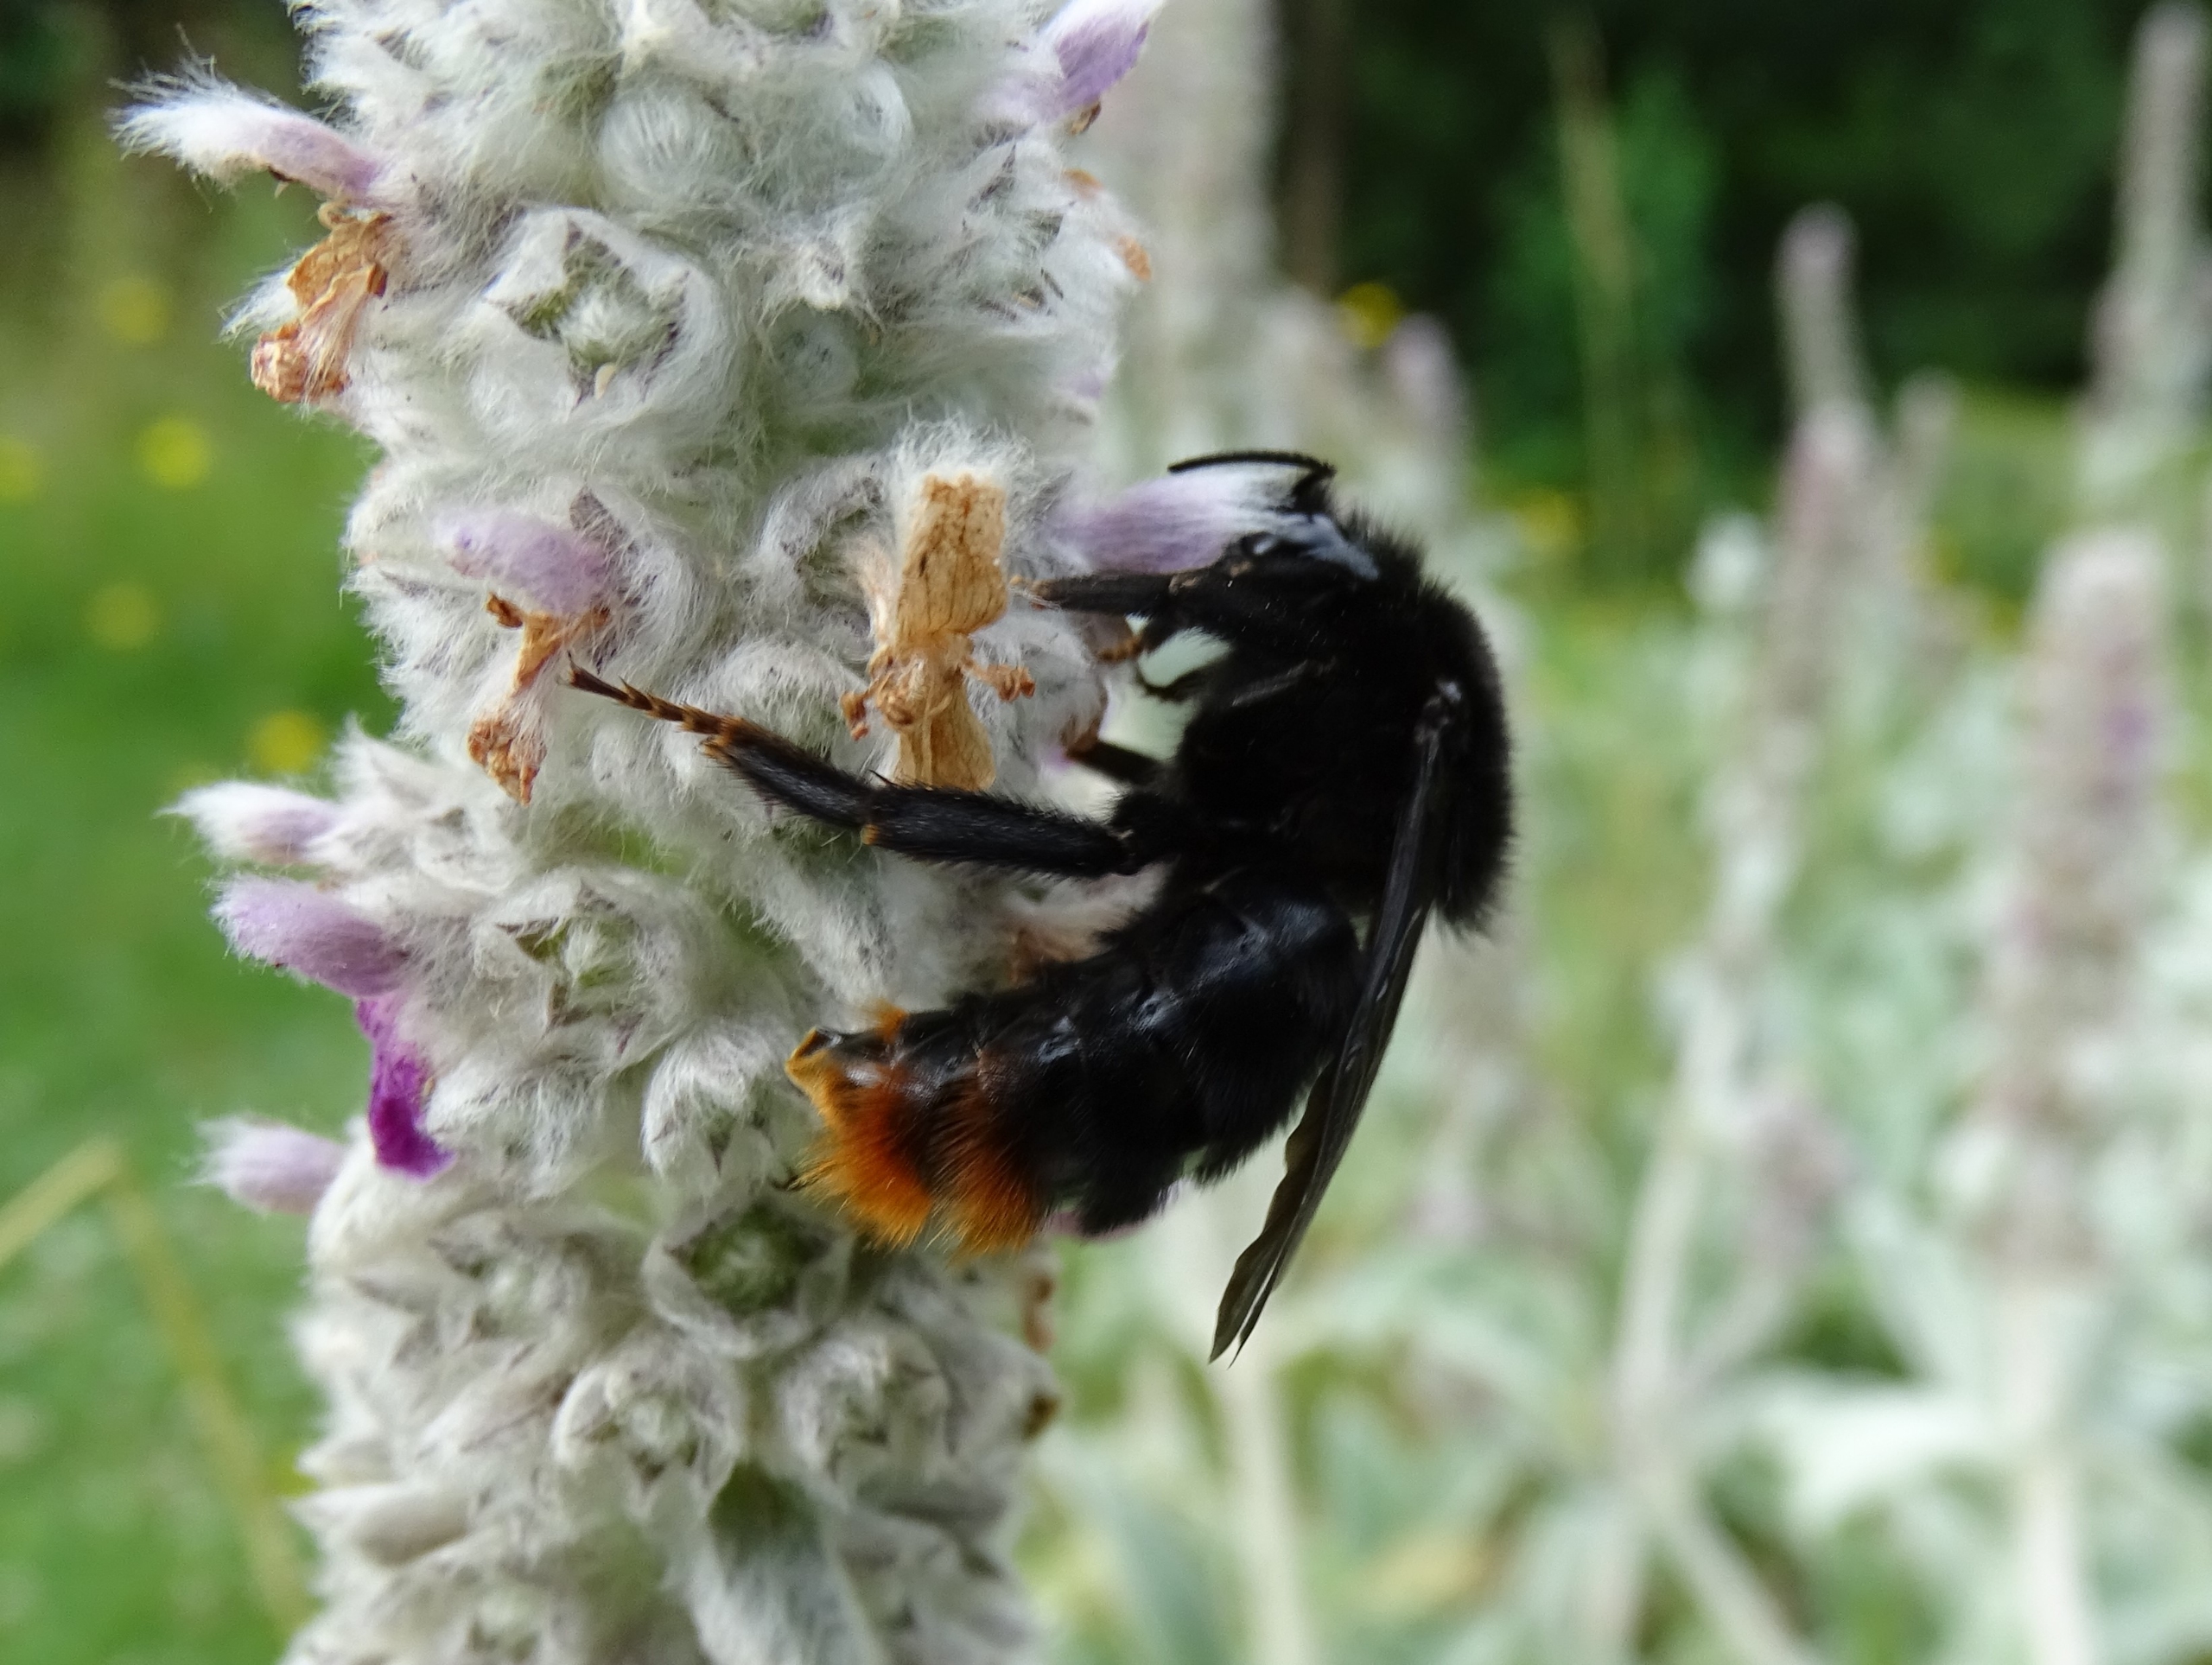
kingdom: Animalia
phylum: Arthropoda
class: Insecta
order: Hymenoptera
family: Apidae
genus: Bombus
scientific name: Bombus rupestris
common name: Stensnyltehumle
